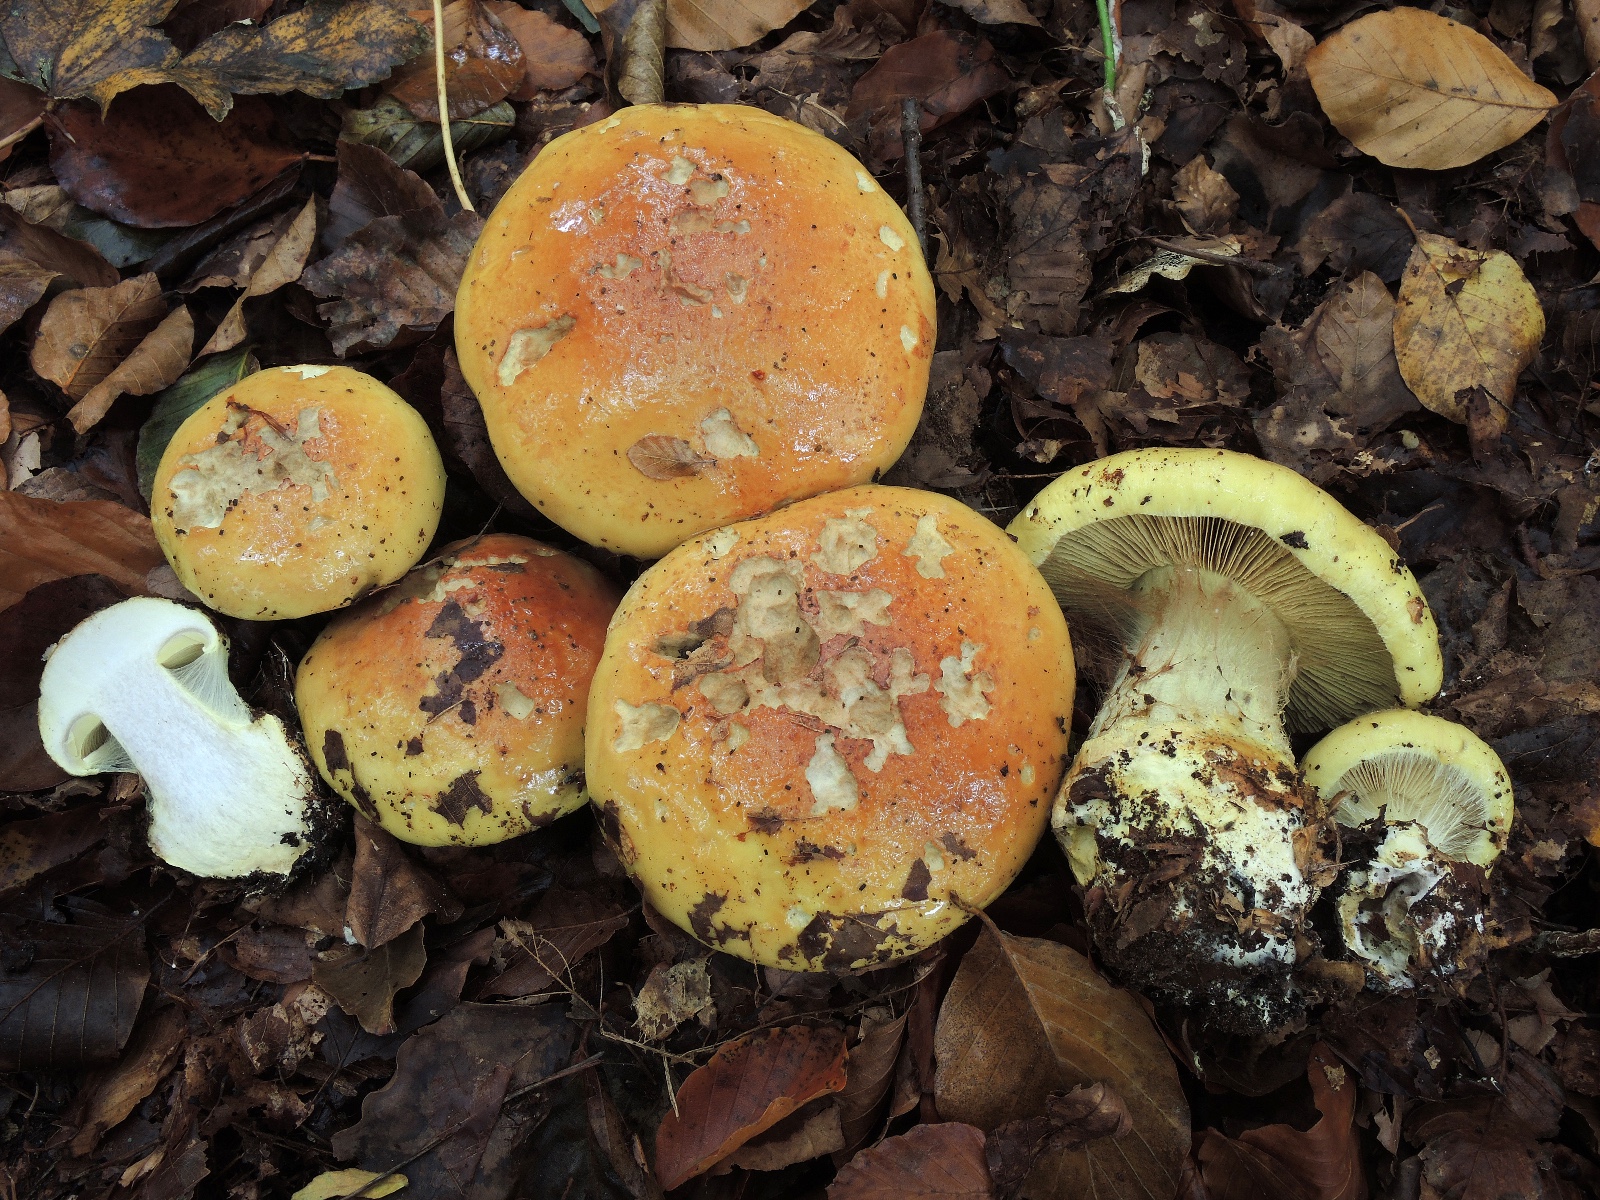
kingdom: Fungi
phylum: Basidiomycota
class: Agaricomycetes
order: Agaricales
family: Cortinariaceae
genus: Calonarius
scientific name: Calonarius elegantissimus
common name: orangegylden slørhat
